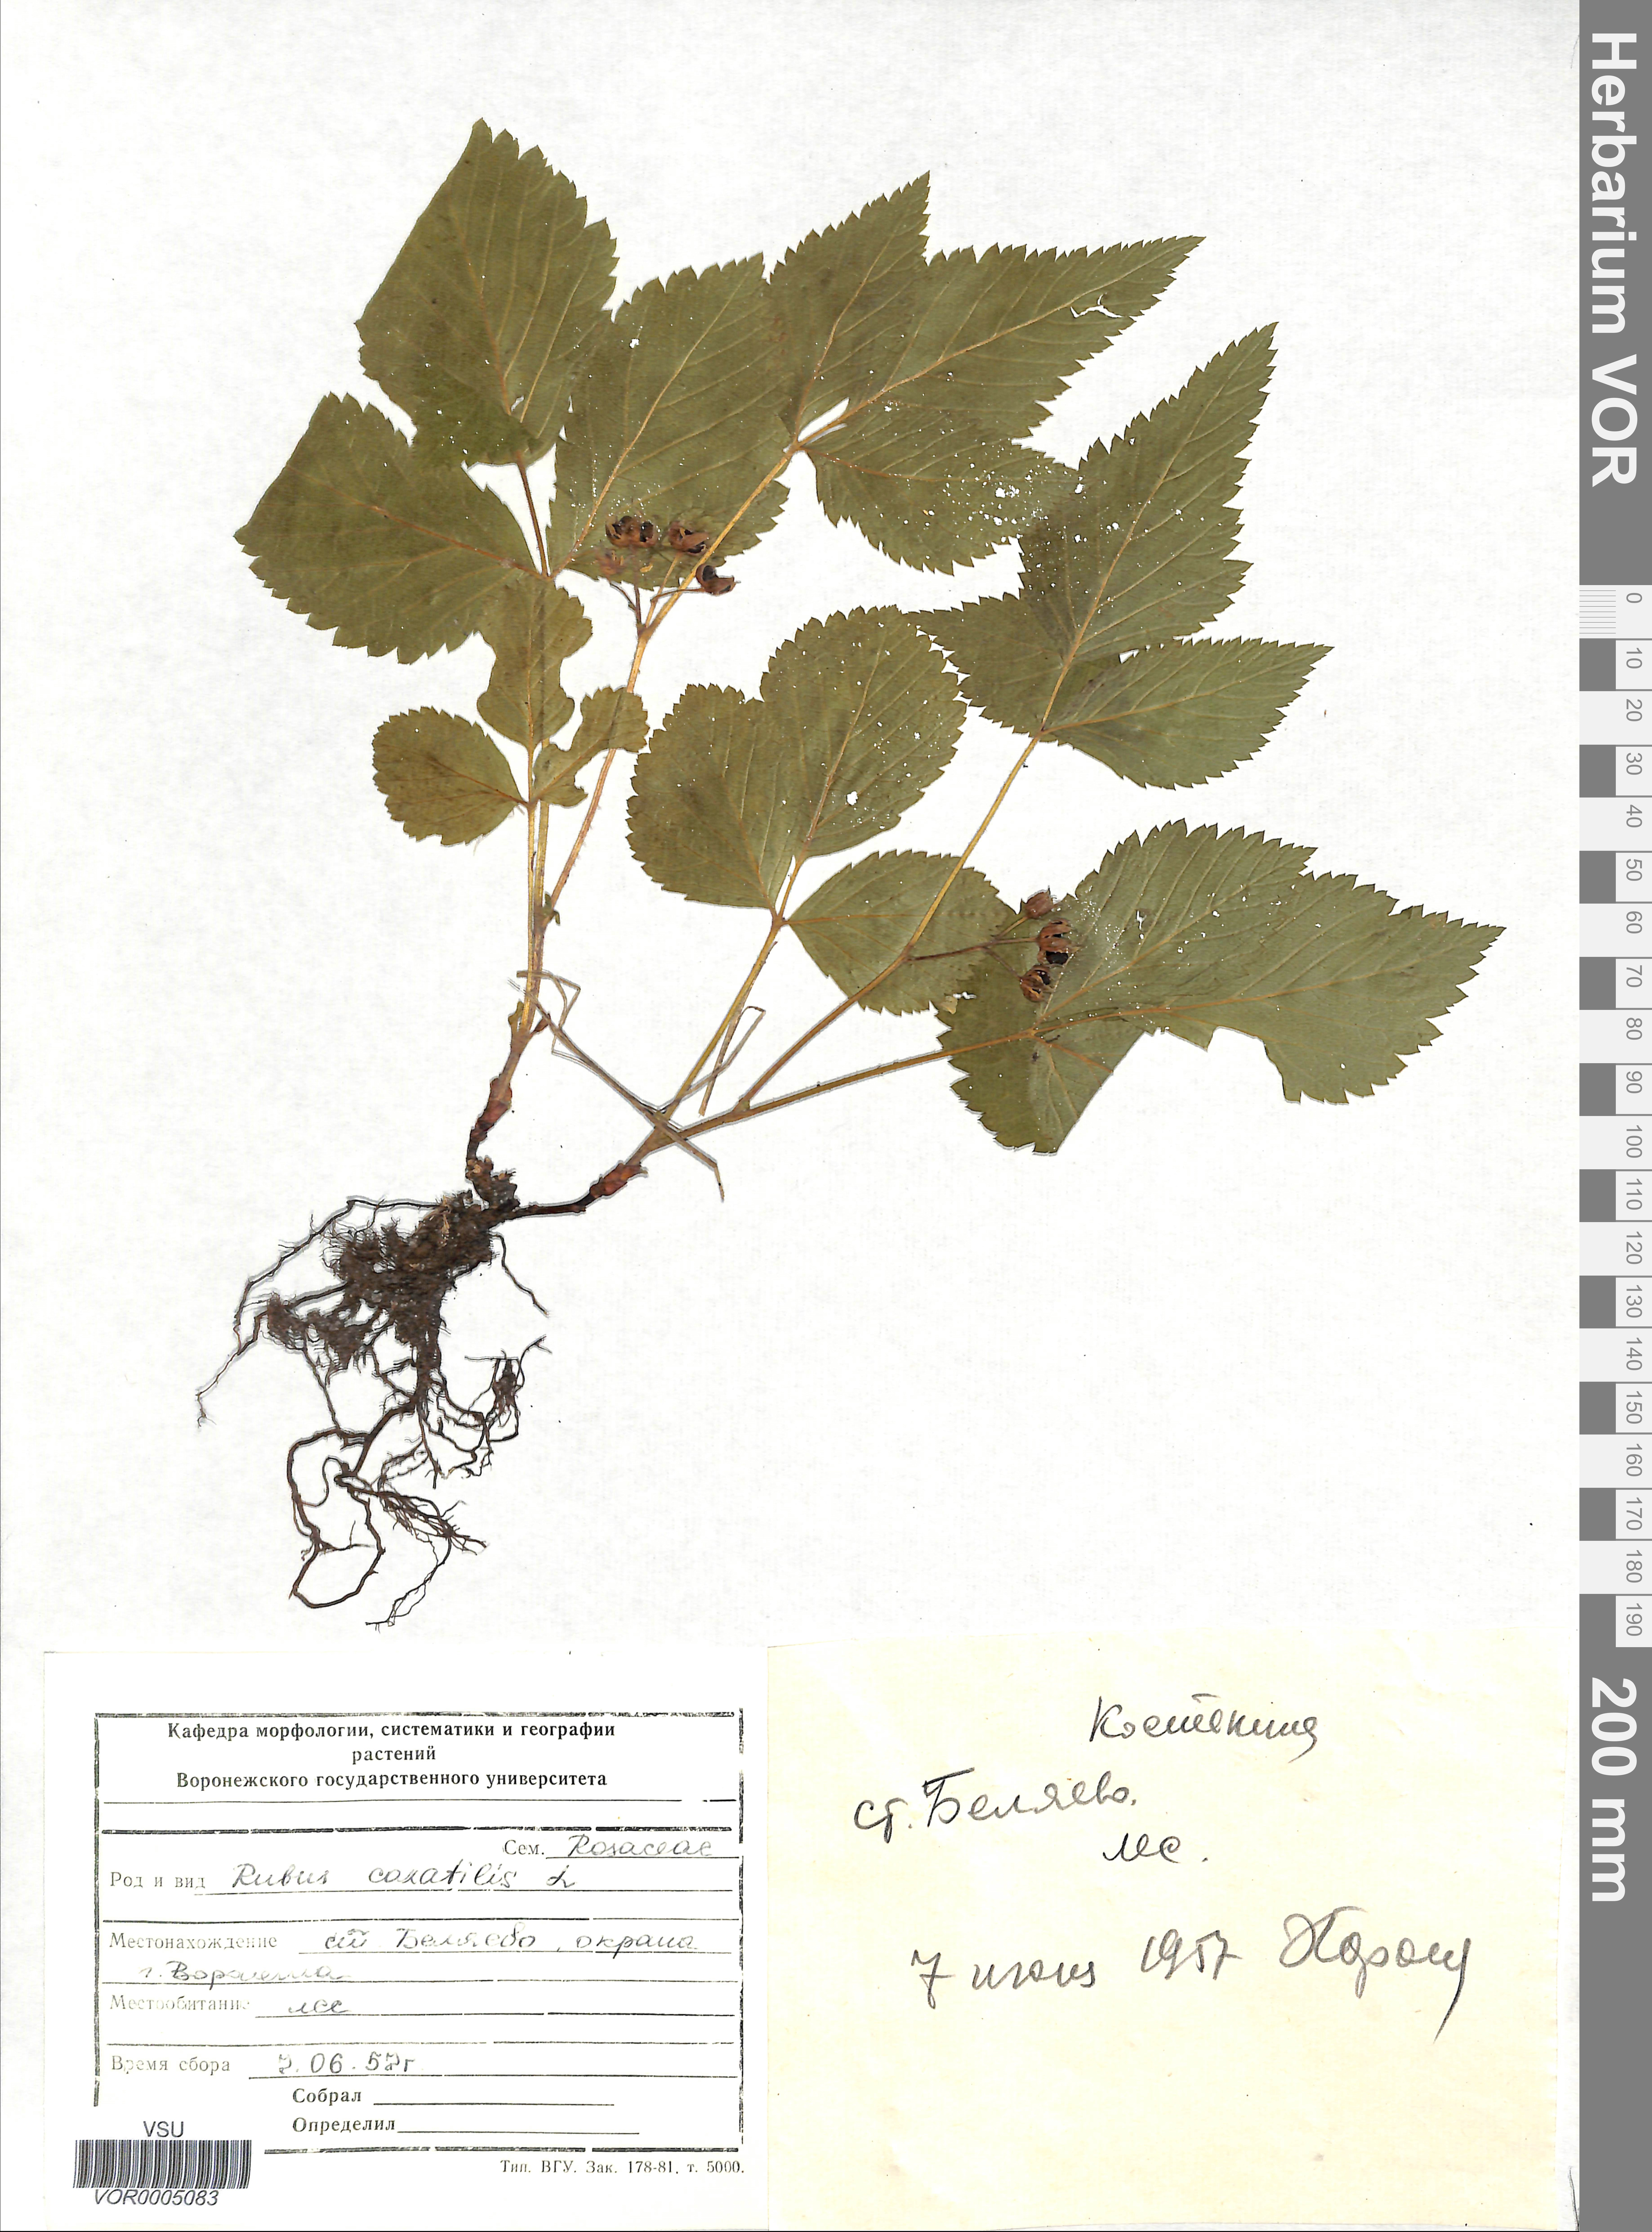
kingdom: Plantae
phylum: Tracheophyta
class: Magnoliopsida
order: Rosales
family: Rosaceae
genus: Rubus
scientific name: Rubus saxatilis
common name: Stone bramble
